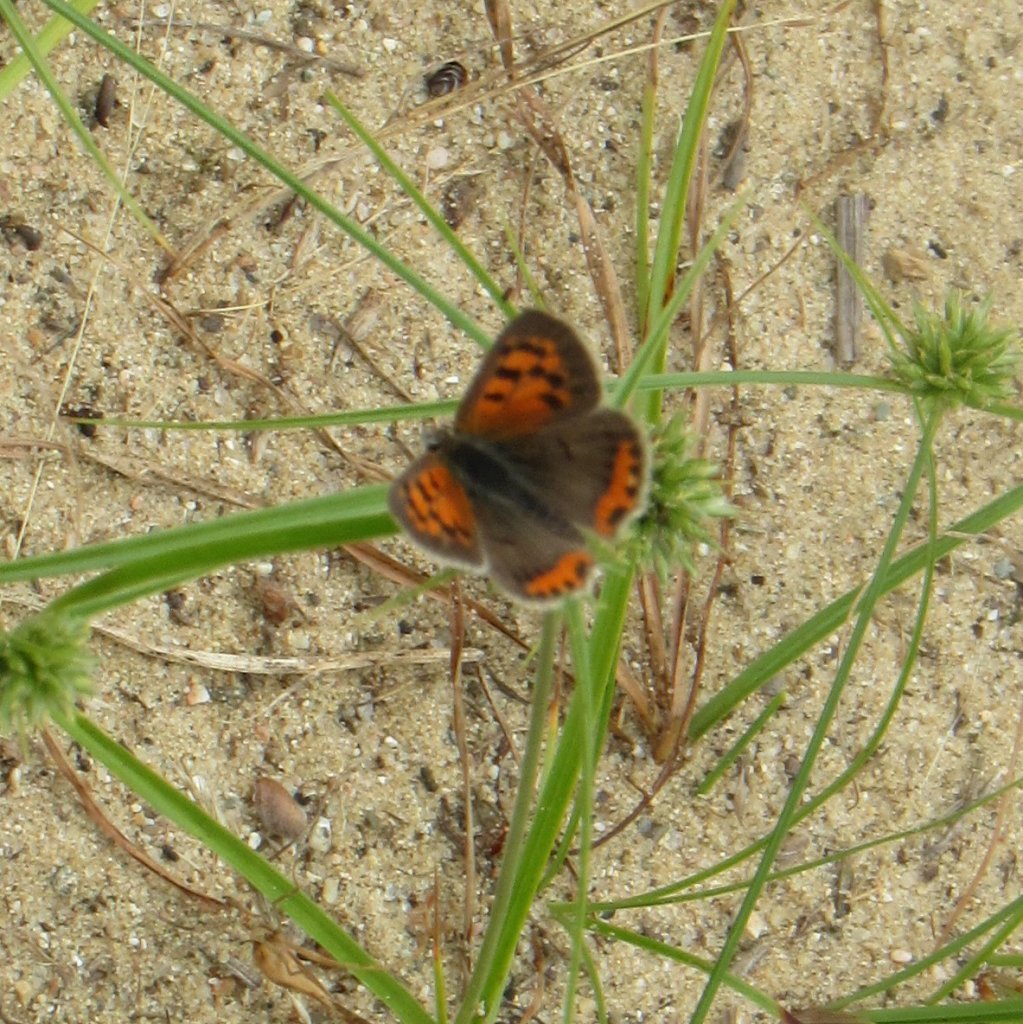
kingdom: Animalia
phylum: Arthropoda
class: Insecta
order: Lepidoptera
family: Lycaenidae
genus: Lycaena
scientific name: Lycaena phlaeas
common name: American Copper
